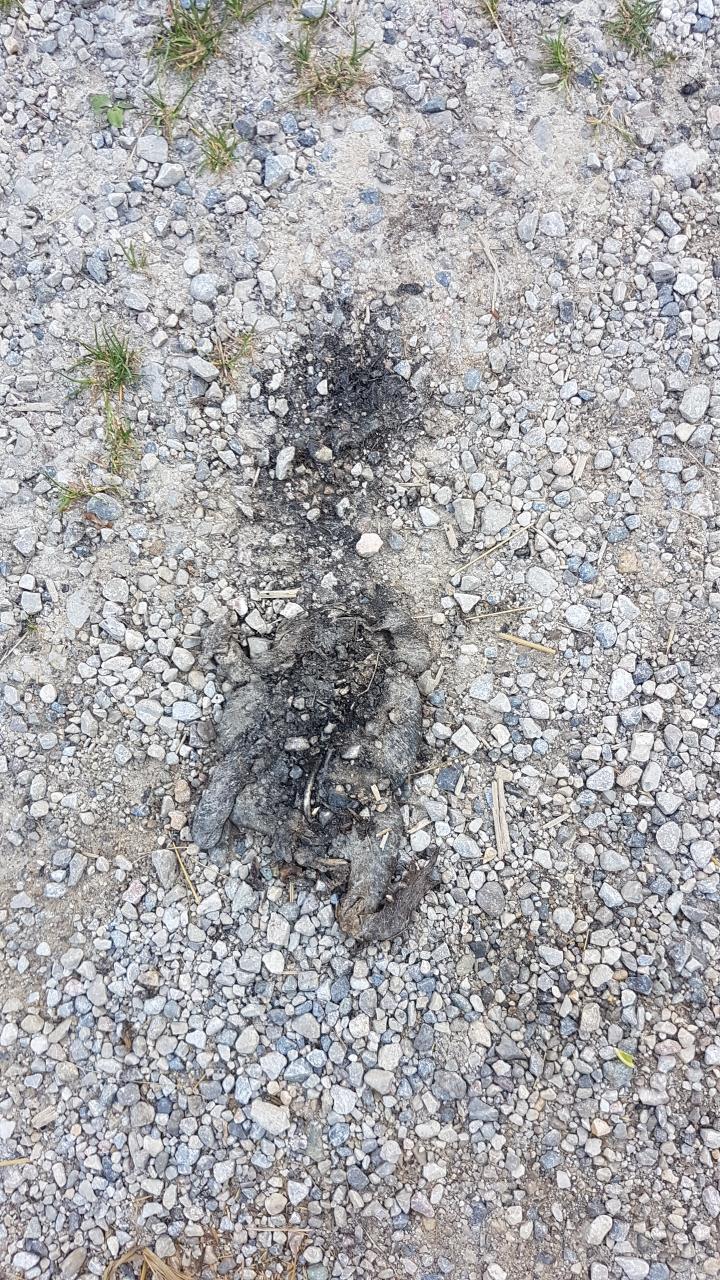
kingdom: Animalia
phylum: Chordata
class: Amphibia
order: Anura
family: Bufonidae
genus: Bufo
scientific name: Bufo bufo
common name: Common toad
